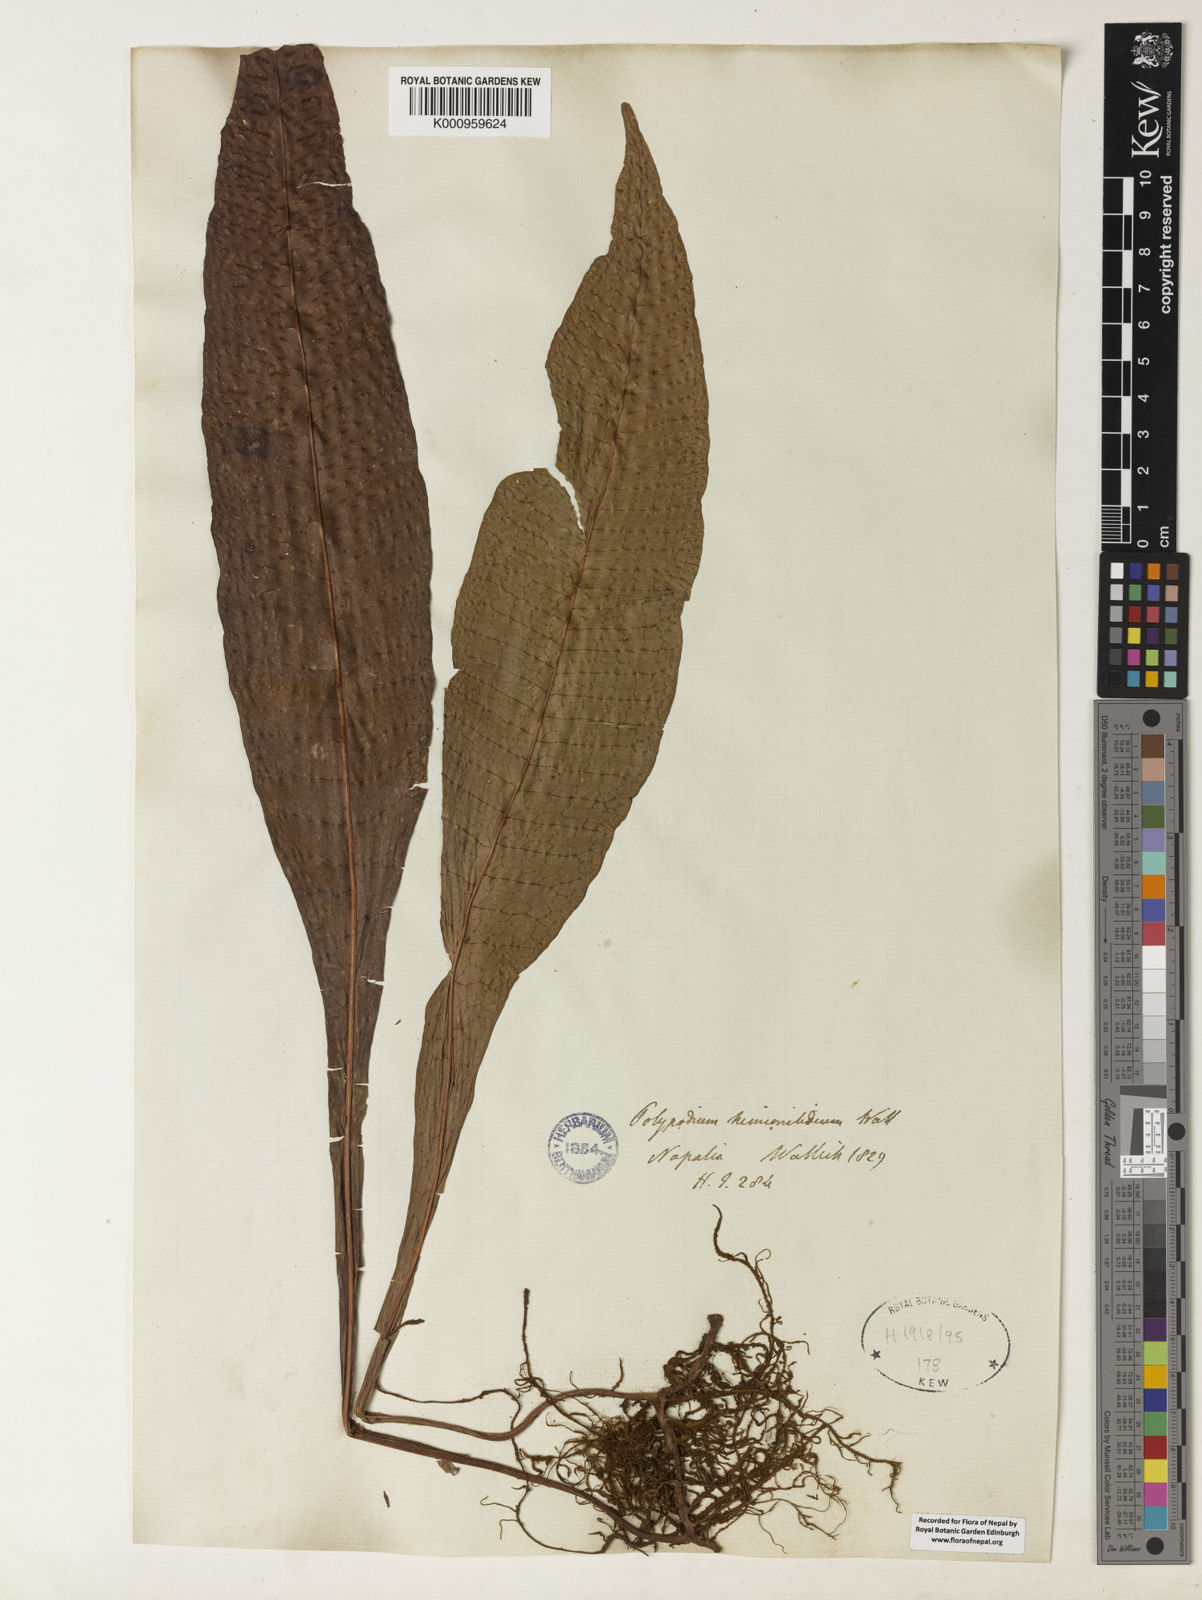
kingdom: Plantae
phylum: Tracheophyta
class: Polypodiopsida
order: Polypodiales
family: Polypodiaceae
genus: Leptochilus
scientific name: Leptochilus hemionitideus
